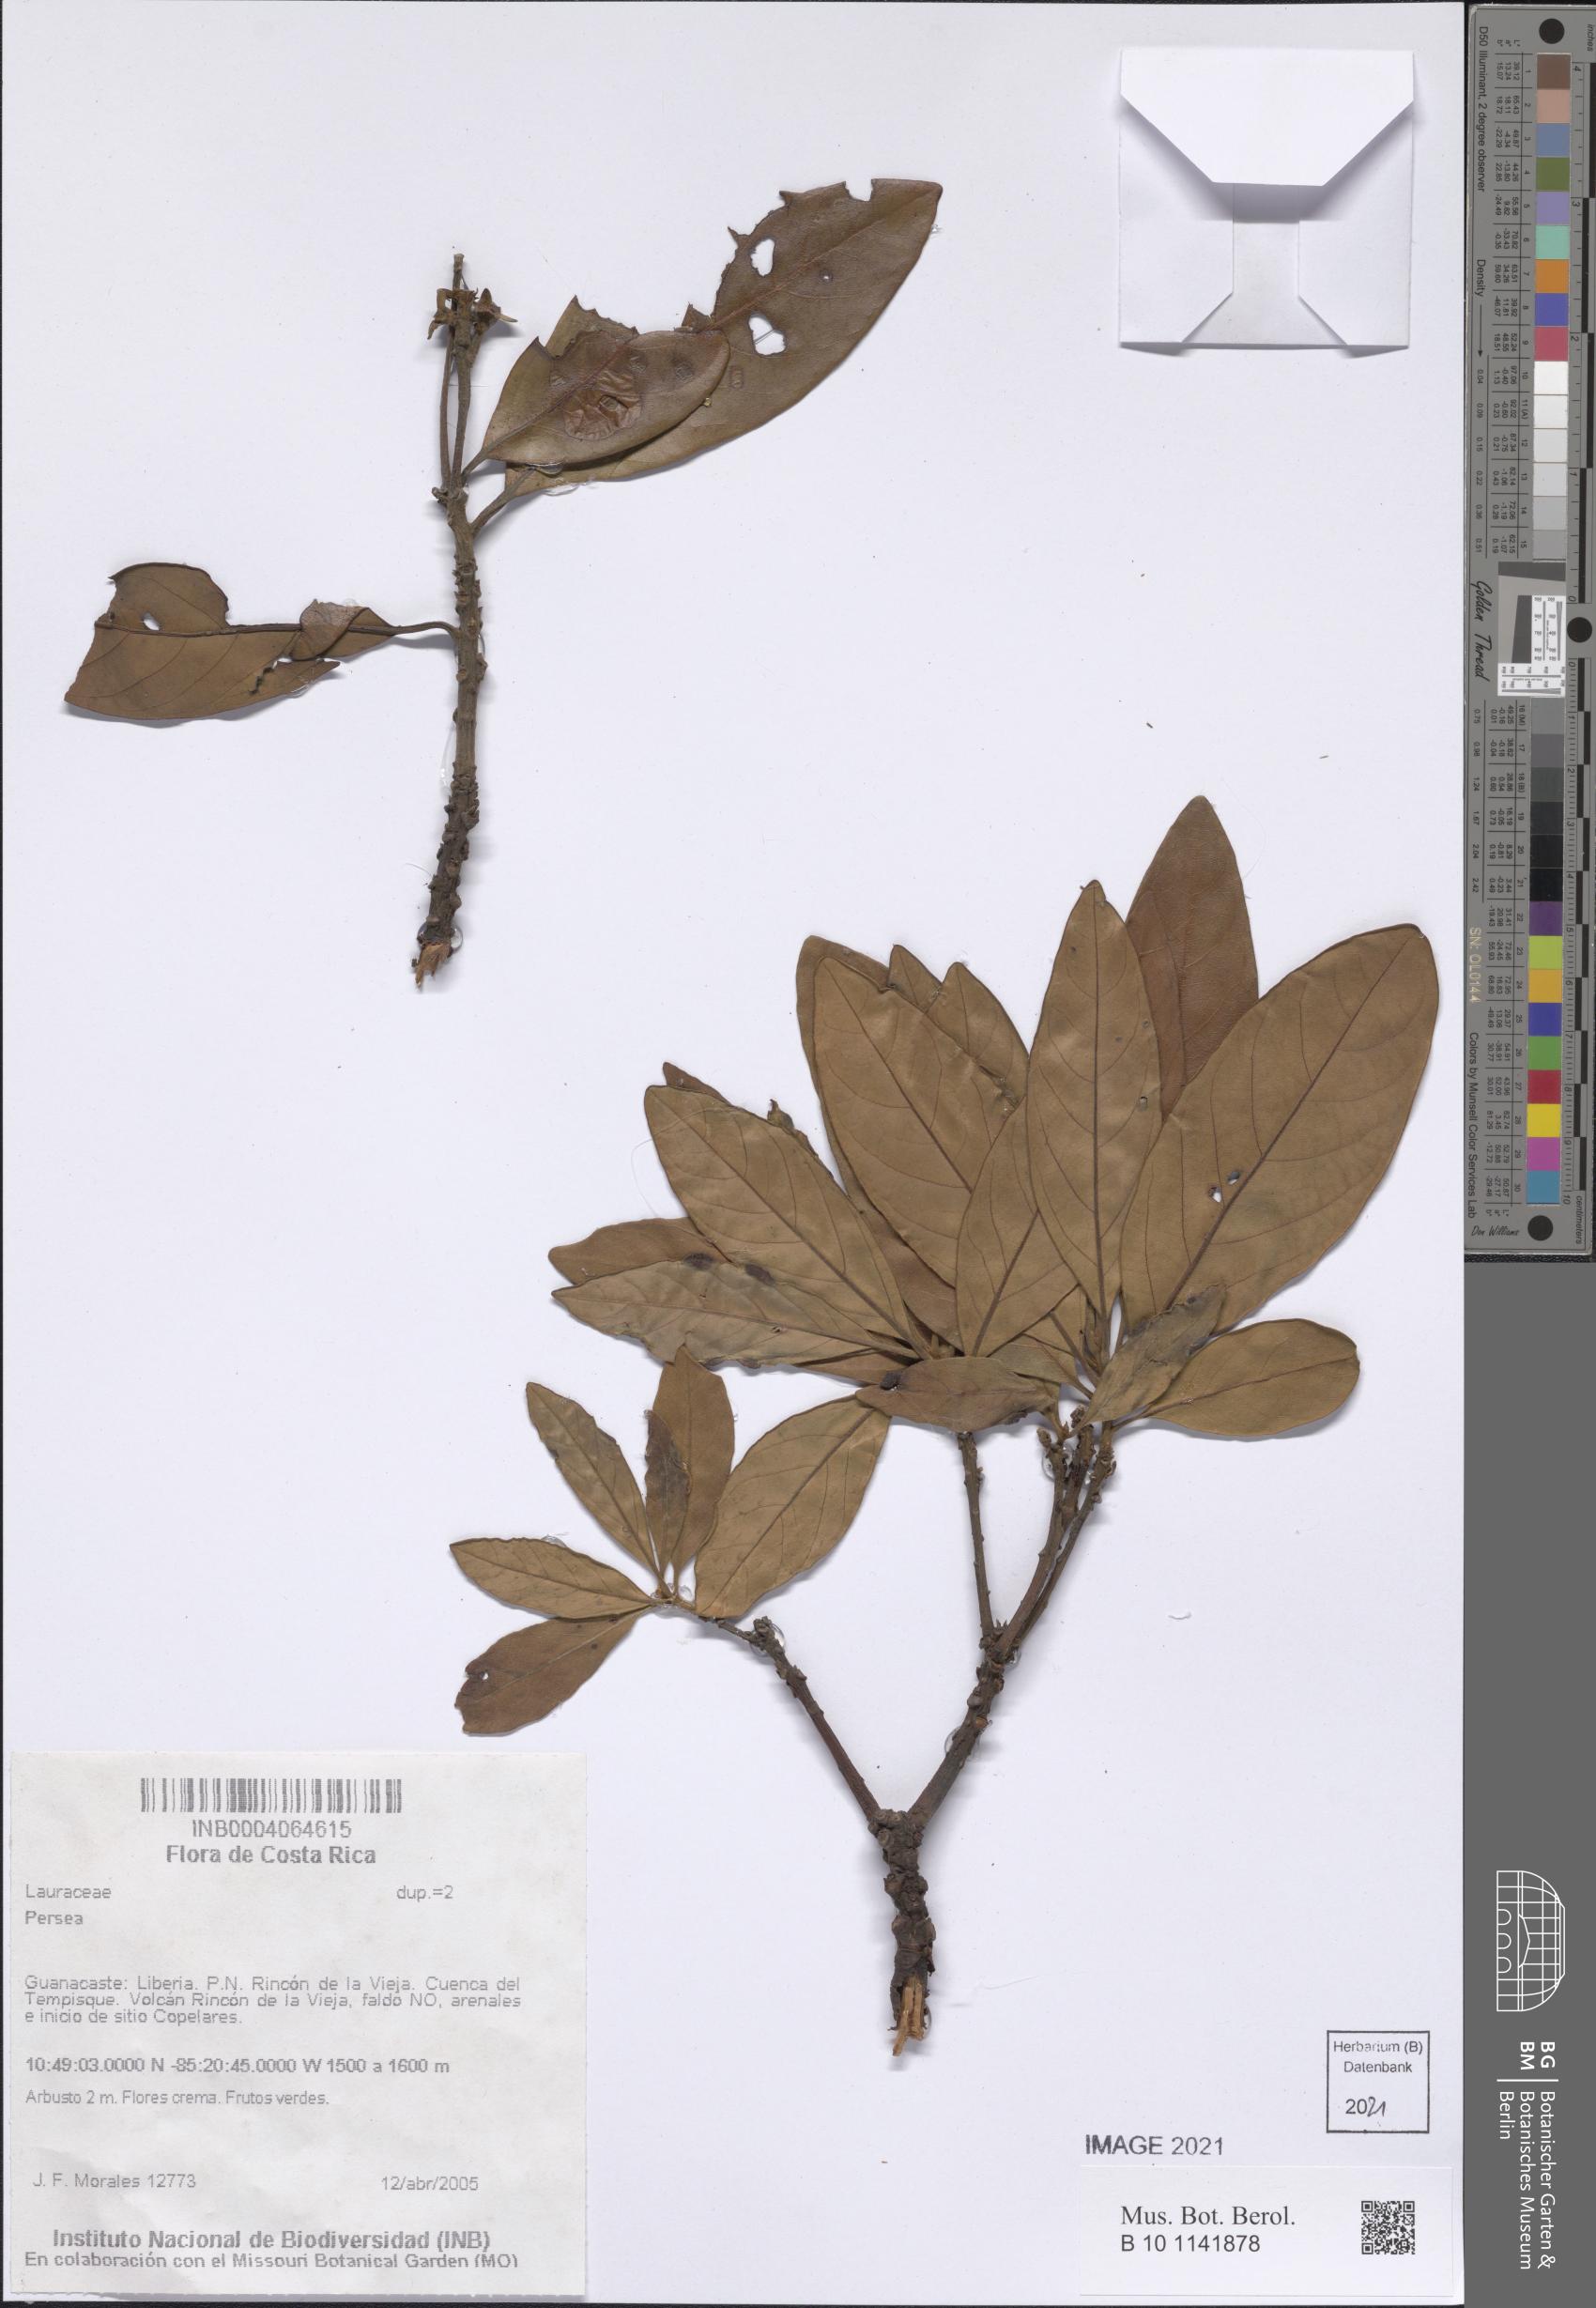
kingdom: Plantae
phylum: Tracheophyta
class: Magnoliopsida
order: Laurales
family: Lauraceae
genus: Persea
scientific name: Persea
